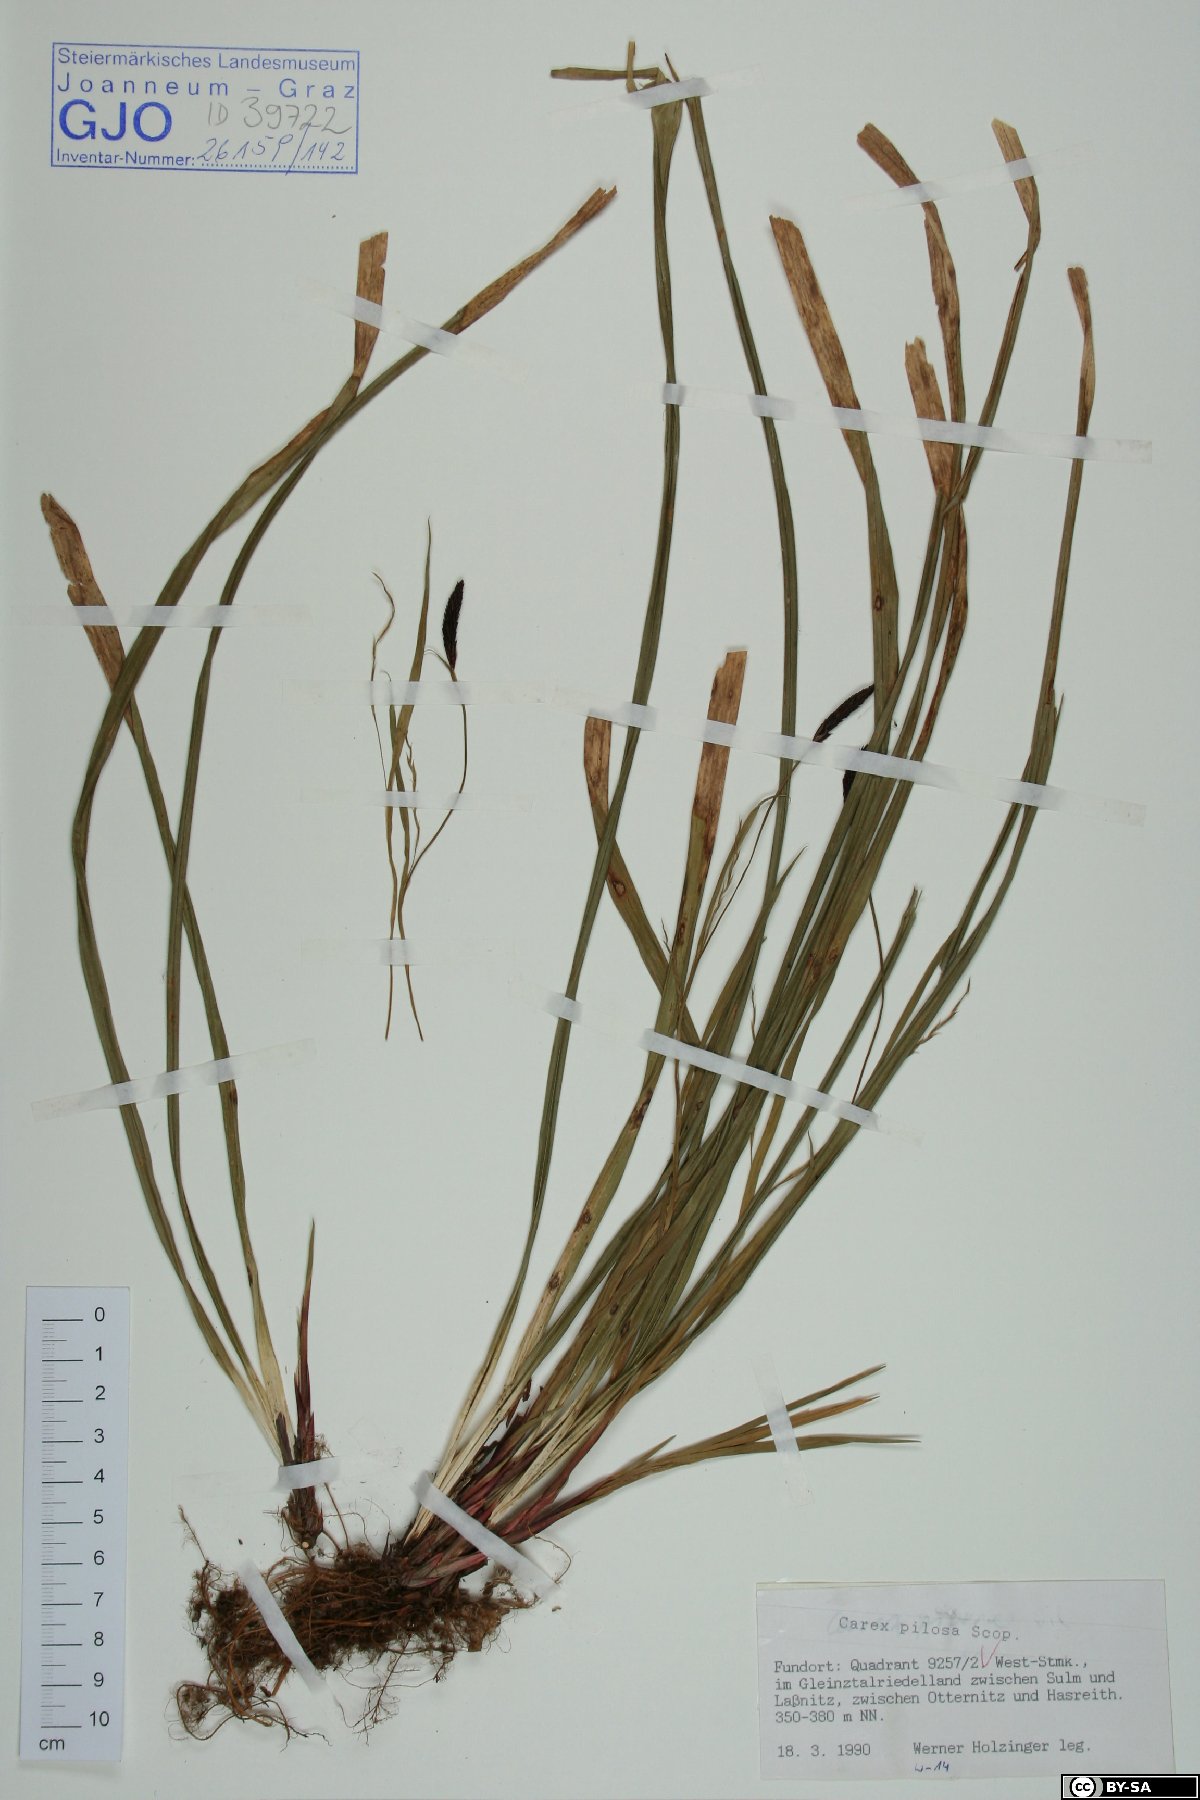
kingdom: Plantae
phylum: Tracheophyta
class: Liliopsida
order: Poales
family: Cyperaceae
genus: Carex
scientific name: Carex pilosa
